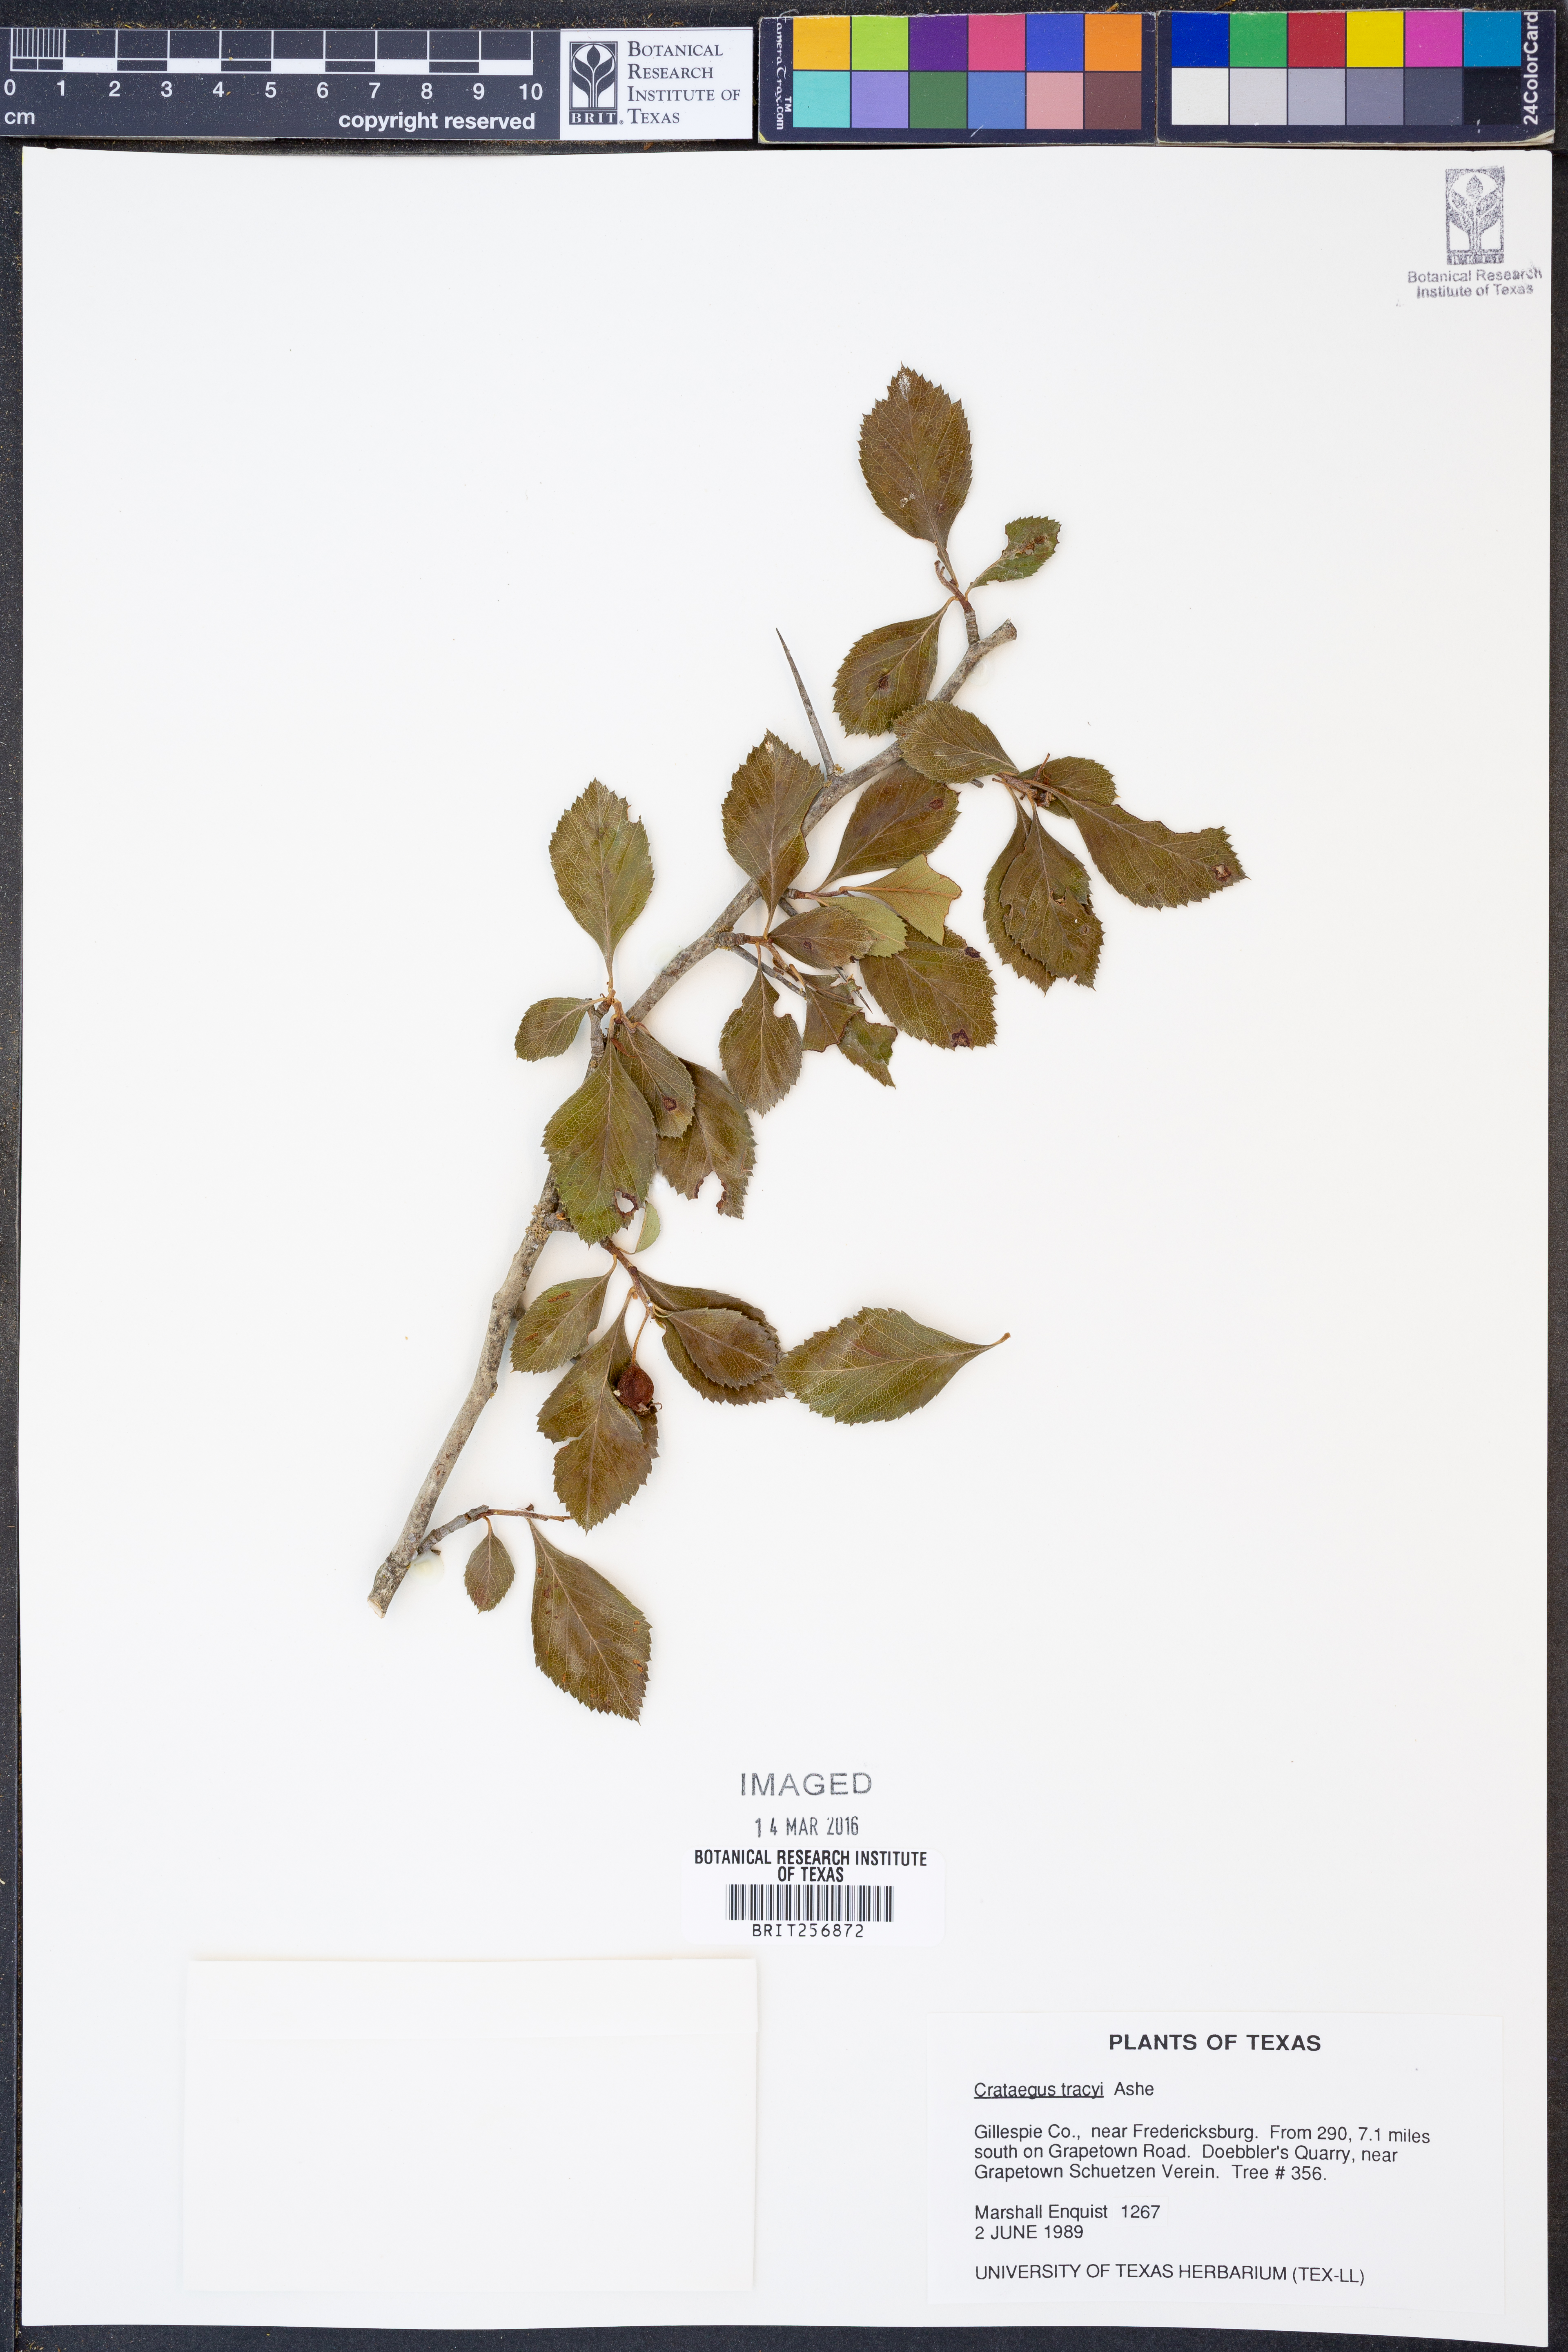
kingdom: Plantae
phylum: Tracheophyta
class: Magnoliopsida
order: Rosales
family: Rosaceae
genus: Crataegus
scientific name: Crataegus tracyi
